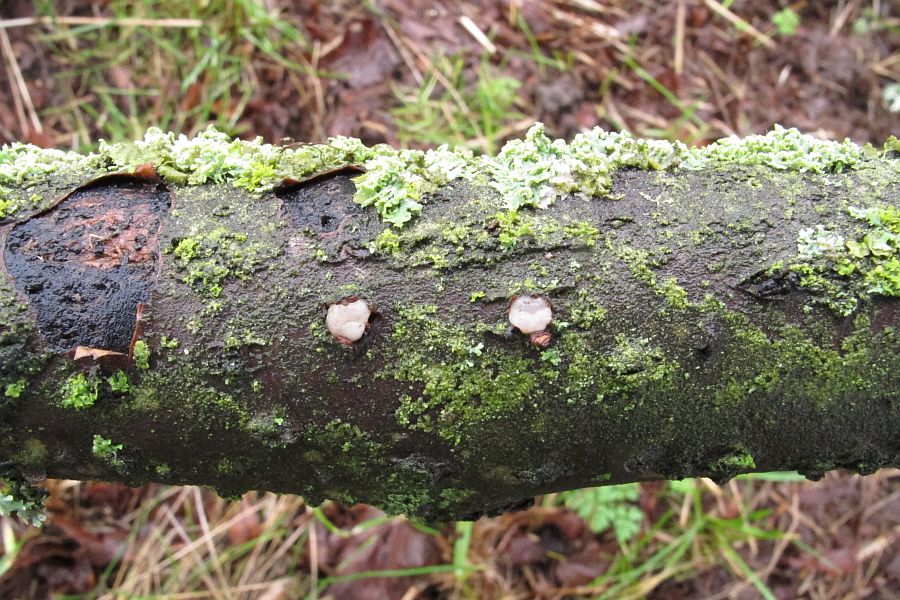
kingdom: Fungi
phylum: Basidiomycota
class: Pucciniomycetes
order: Platygloeales
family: Platygloeaceae
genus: Platygloea
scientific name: Platygloea disciformis
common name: linde-slimklat
